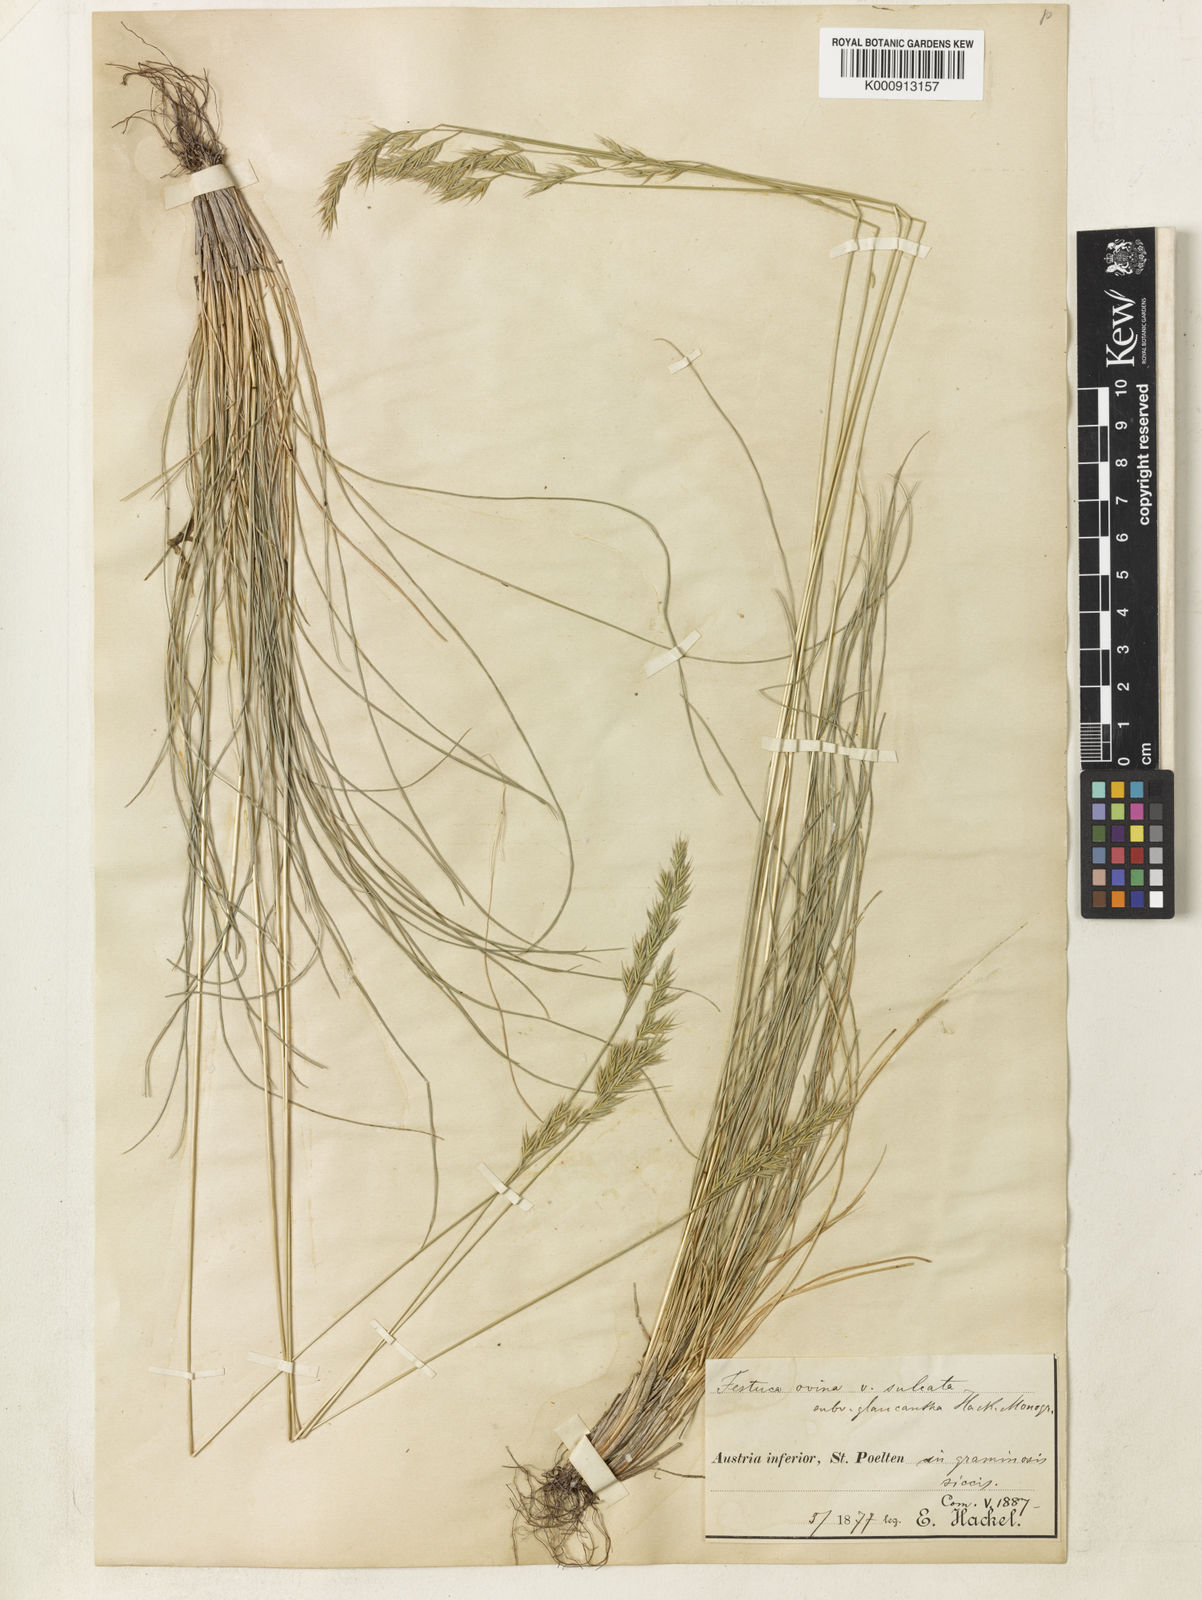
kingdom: Plantae
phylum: Tracheophyta
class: Liliopsida
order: Poales
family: Poaceae
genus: Festuca
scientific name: Festuca rupicola
